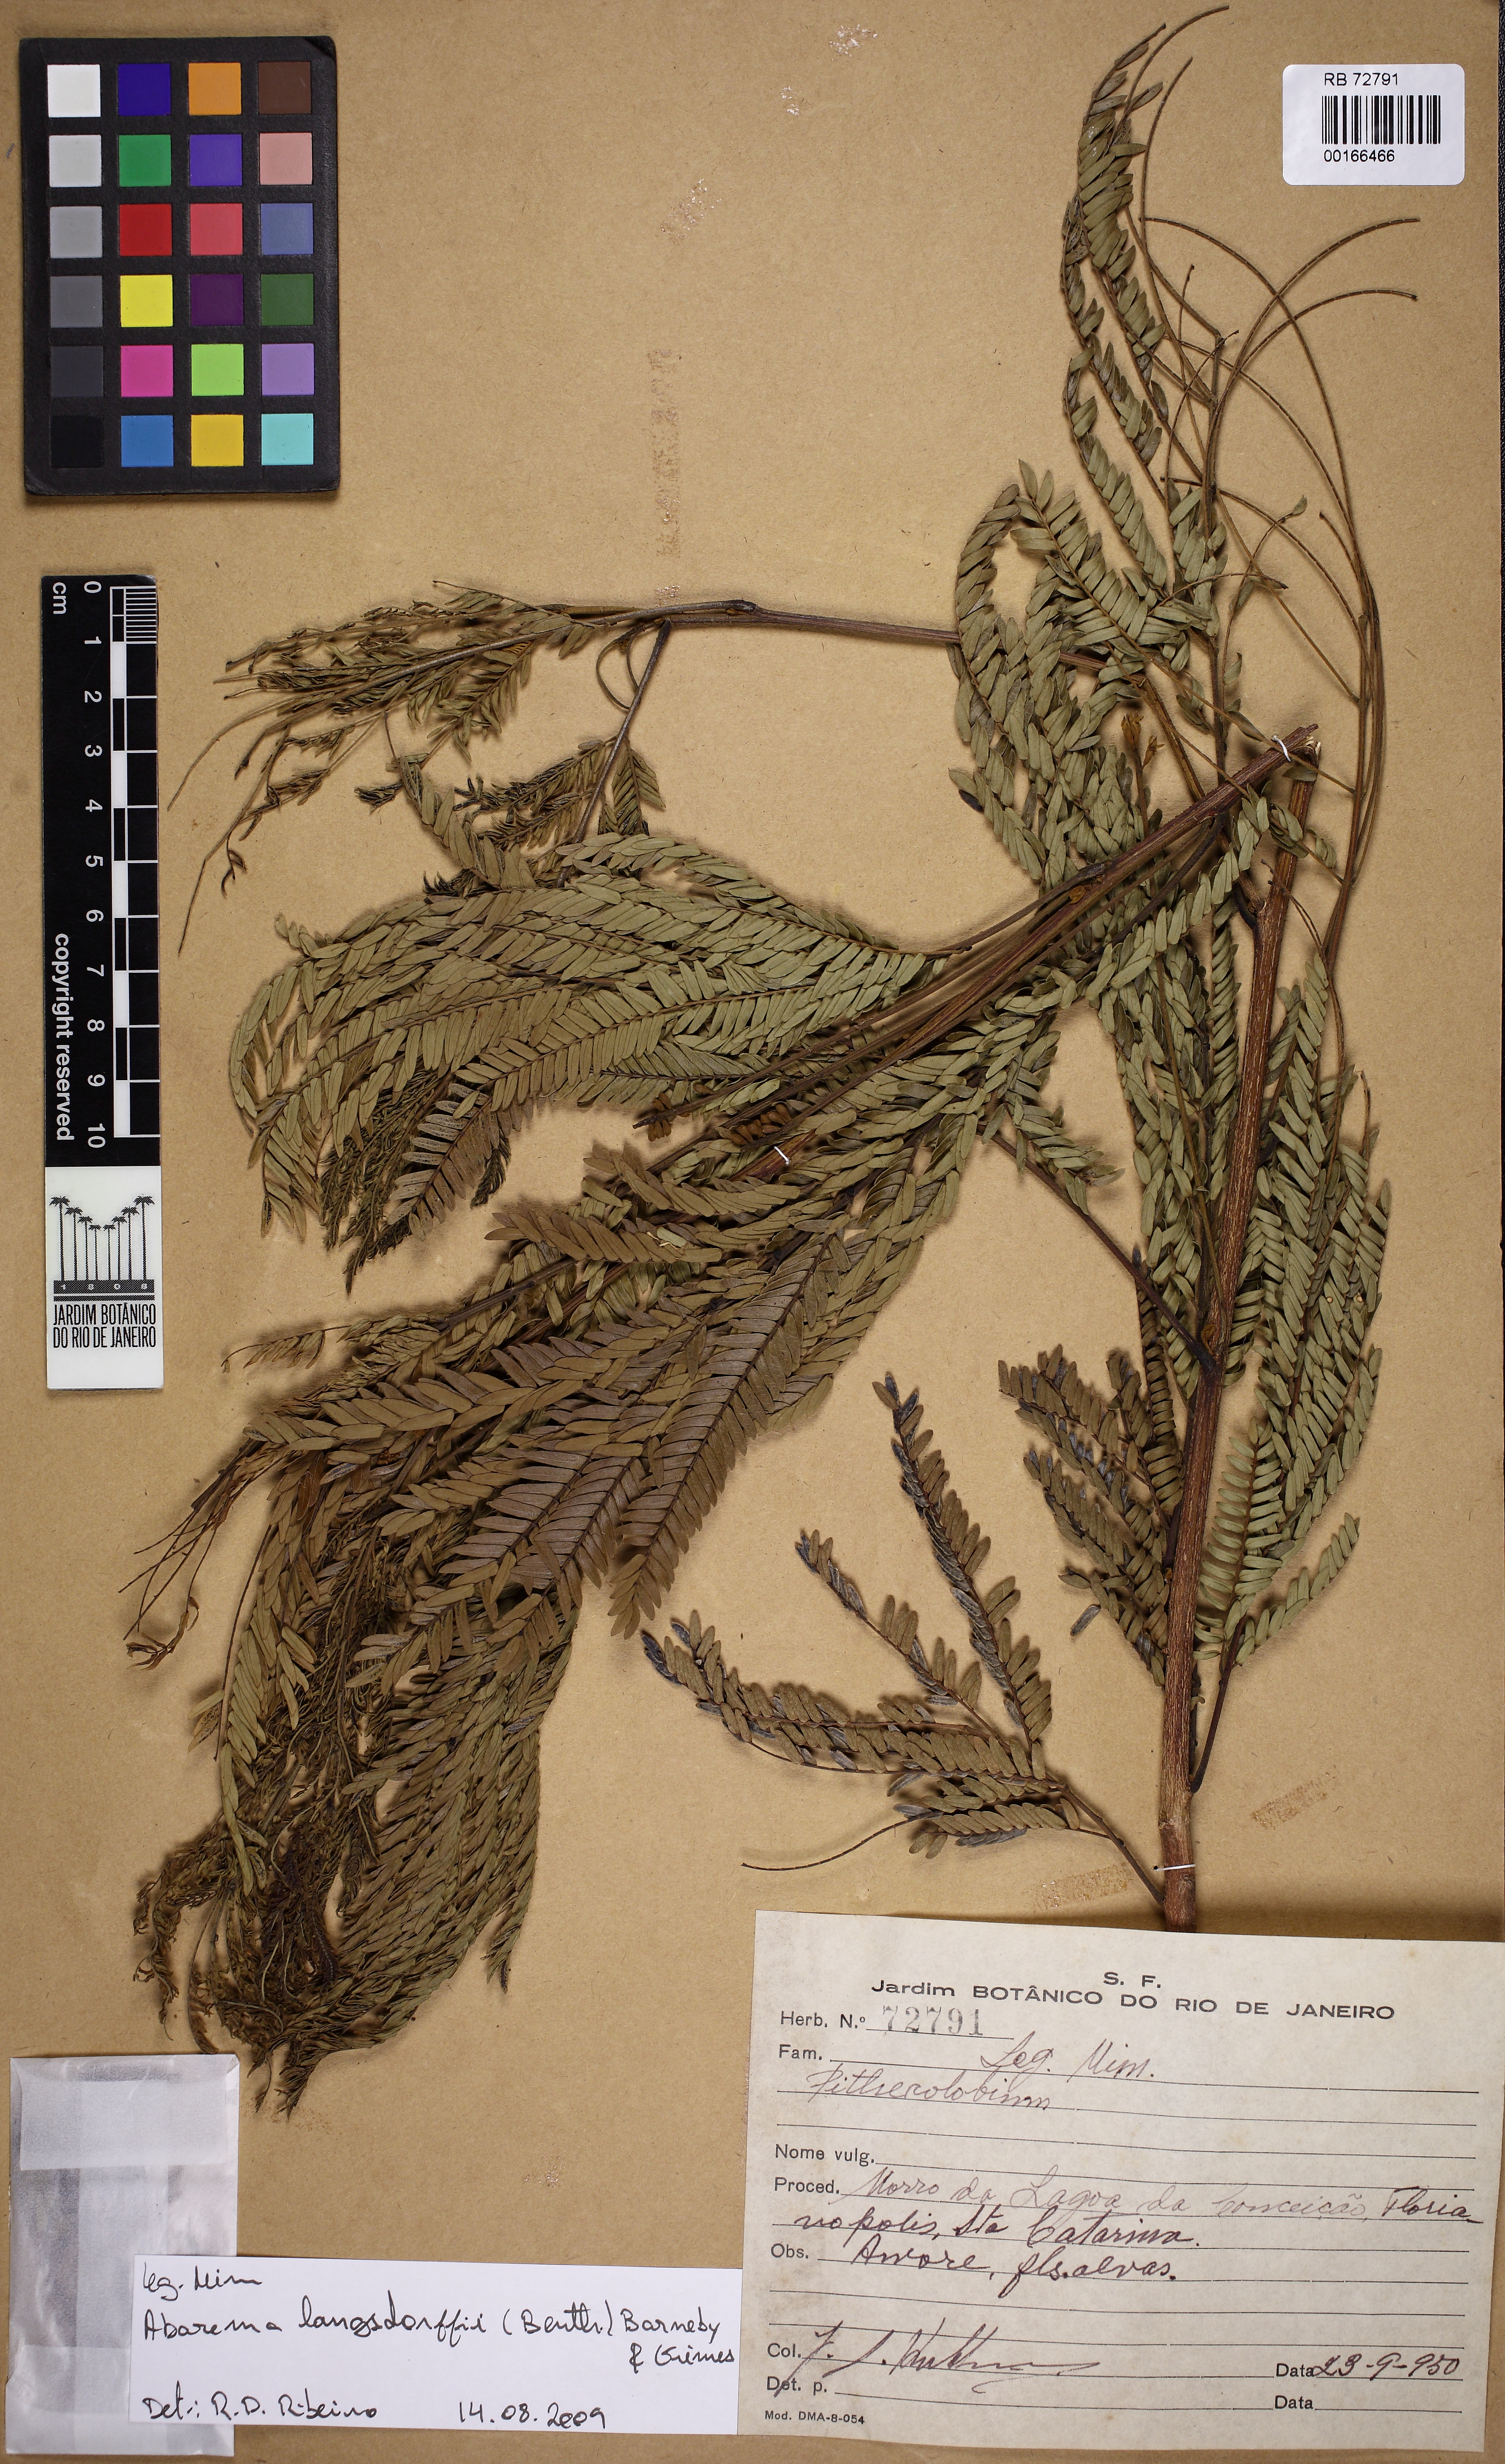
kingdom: Plantae
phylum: Tracheophyta
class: Magnoliopsida
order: Fabales
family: Fabaceae
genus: Pithecellobium
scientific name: Pithecellobium
